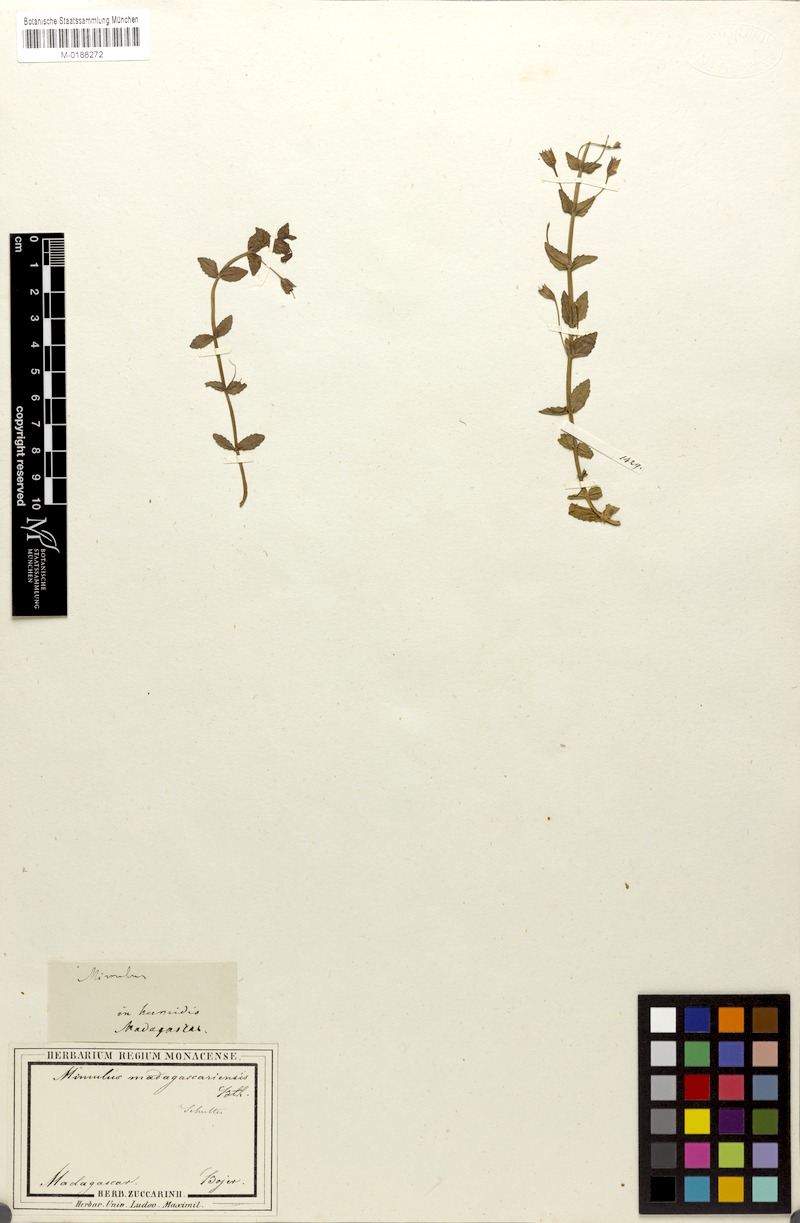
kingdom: Plantae
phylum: Tracheophyta
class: Magnoliopsida
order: Lamiales
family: Phrymaceae
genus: Mimulus
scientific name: Mimulus madagascariensis
